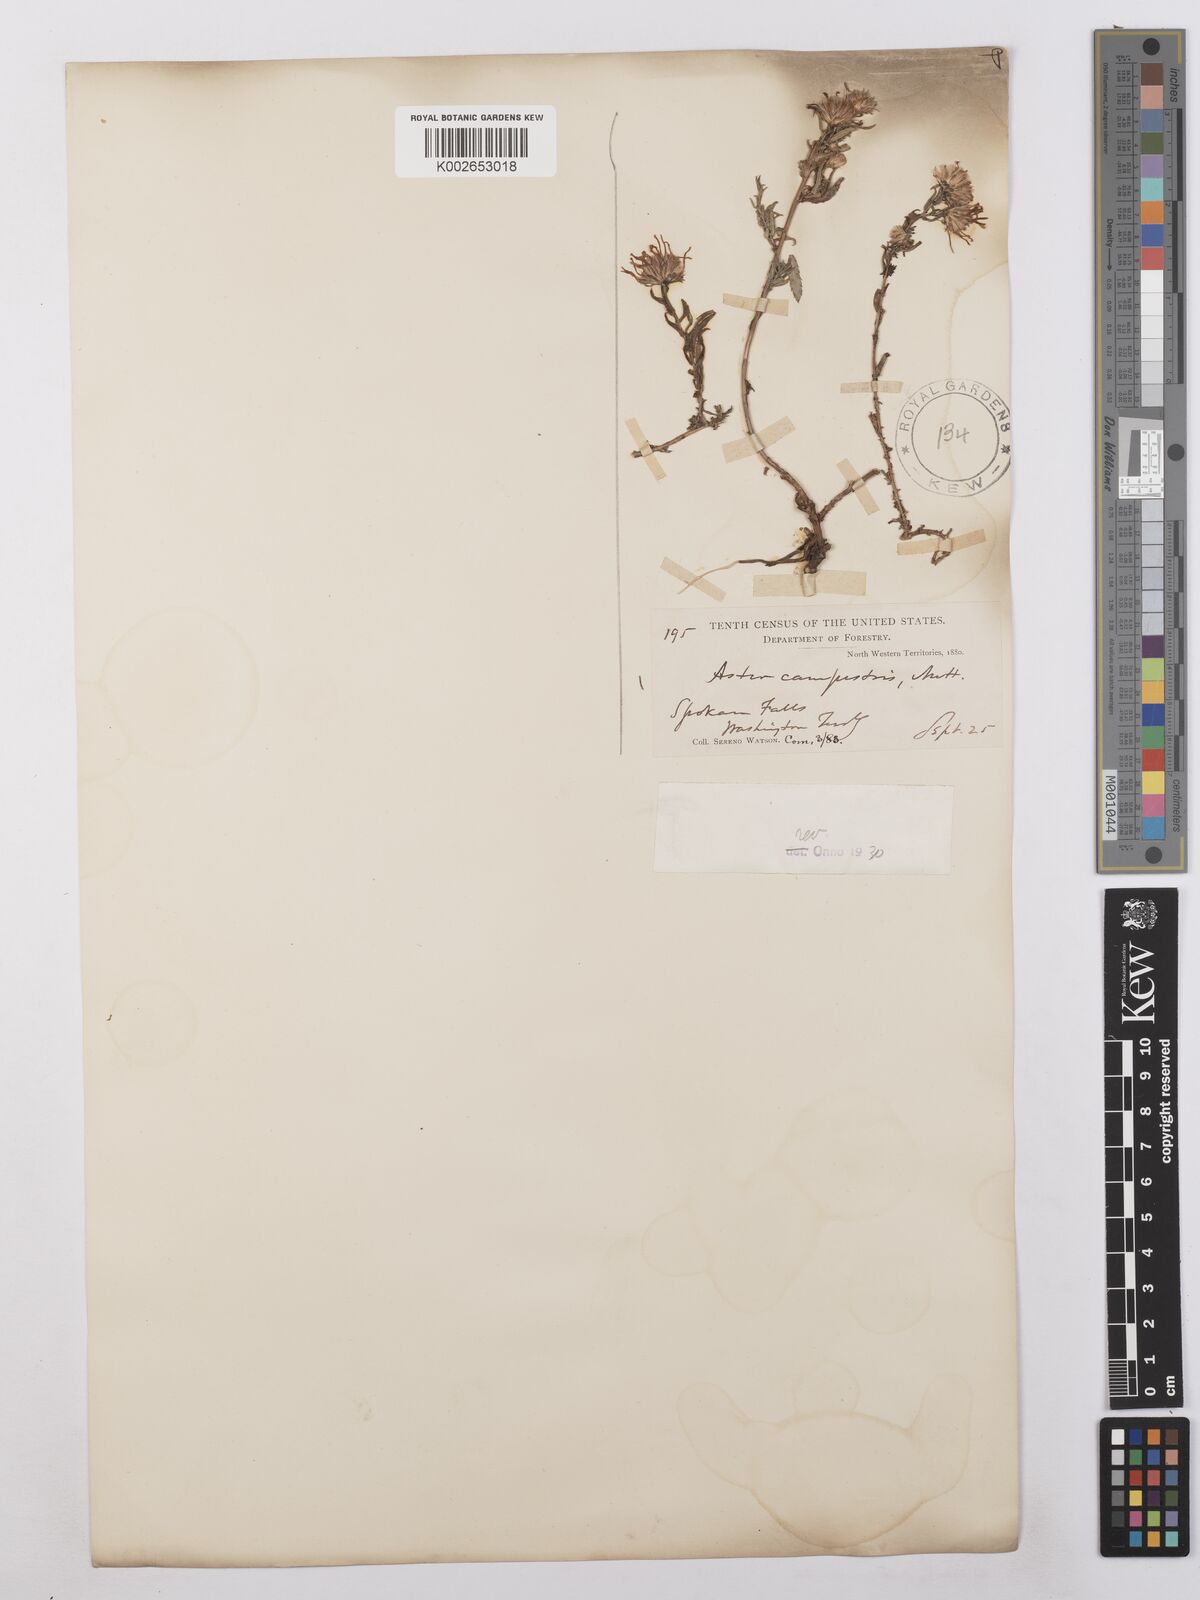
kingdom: Plantae
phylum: Tracheophyta
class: Magnoliopsida
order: Asterales
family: Asteraceae
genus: Symphyotrichum
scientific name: Symphyotrichum campestre
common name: Meadow aster
